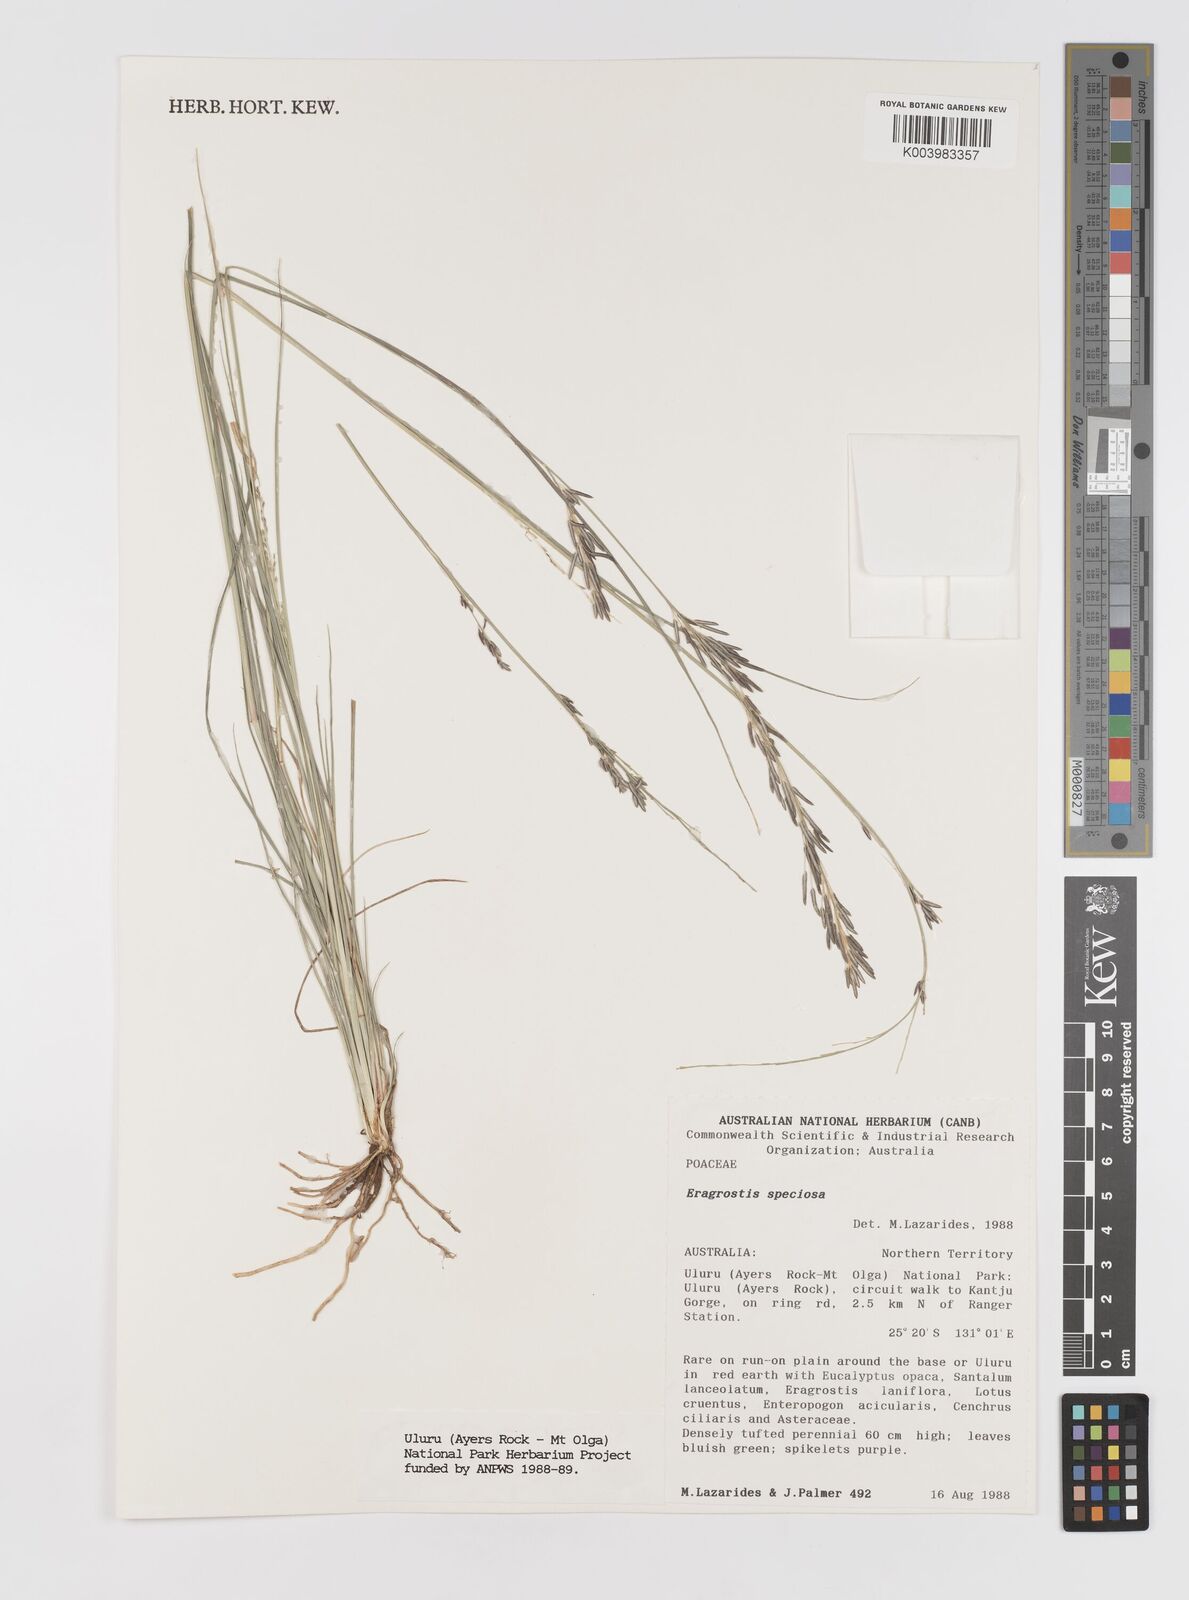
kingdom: Plantae
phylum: Tracheophyta
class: Liliopsida
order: Poales
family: Poaceae
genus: Eragrostis
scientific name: Eragrostis speciosa
